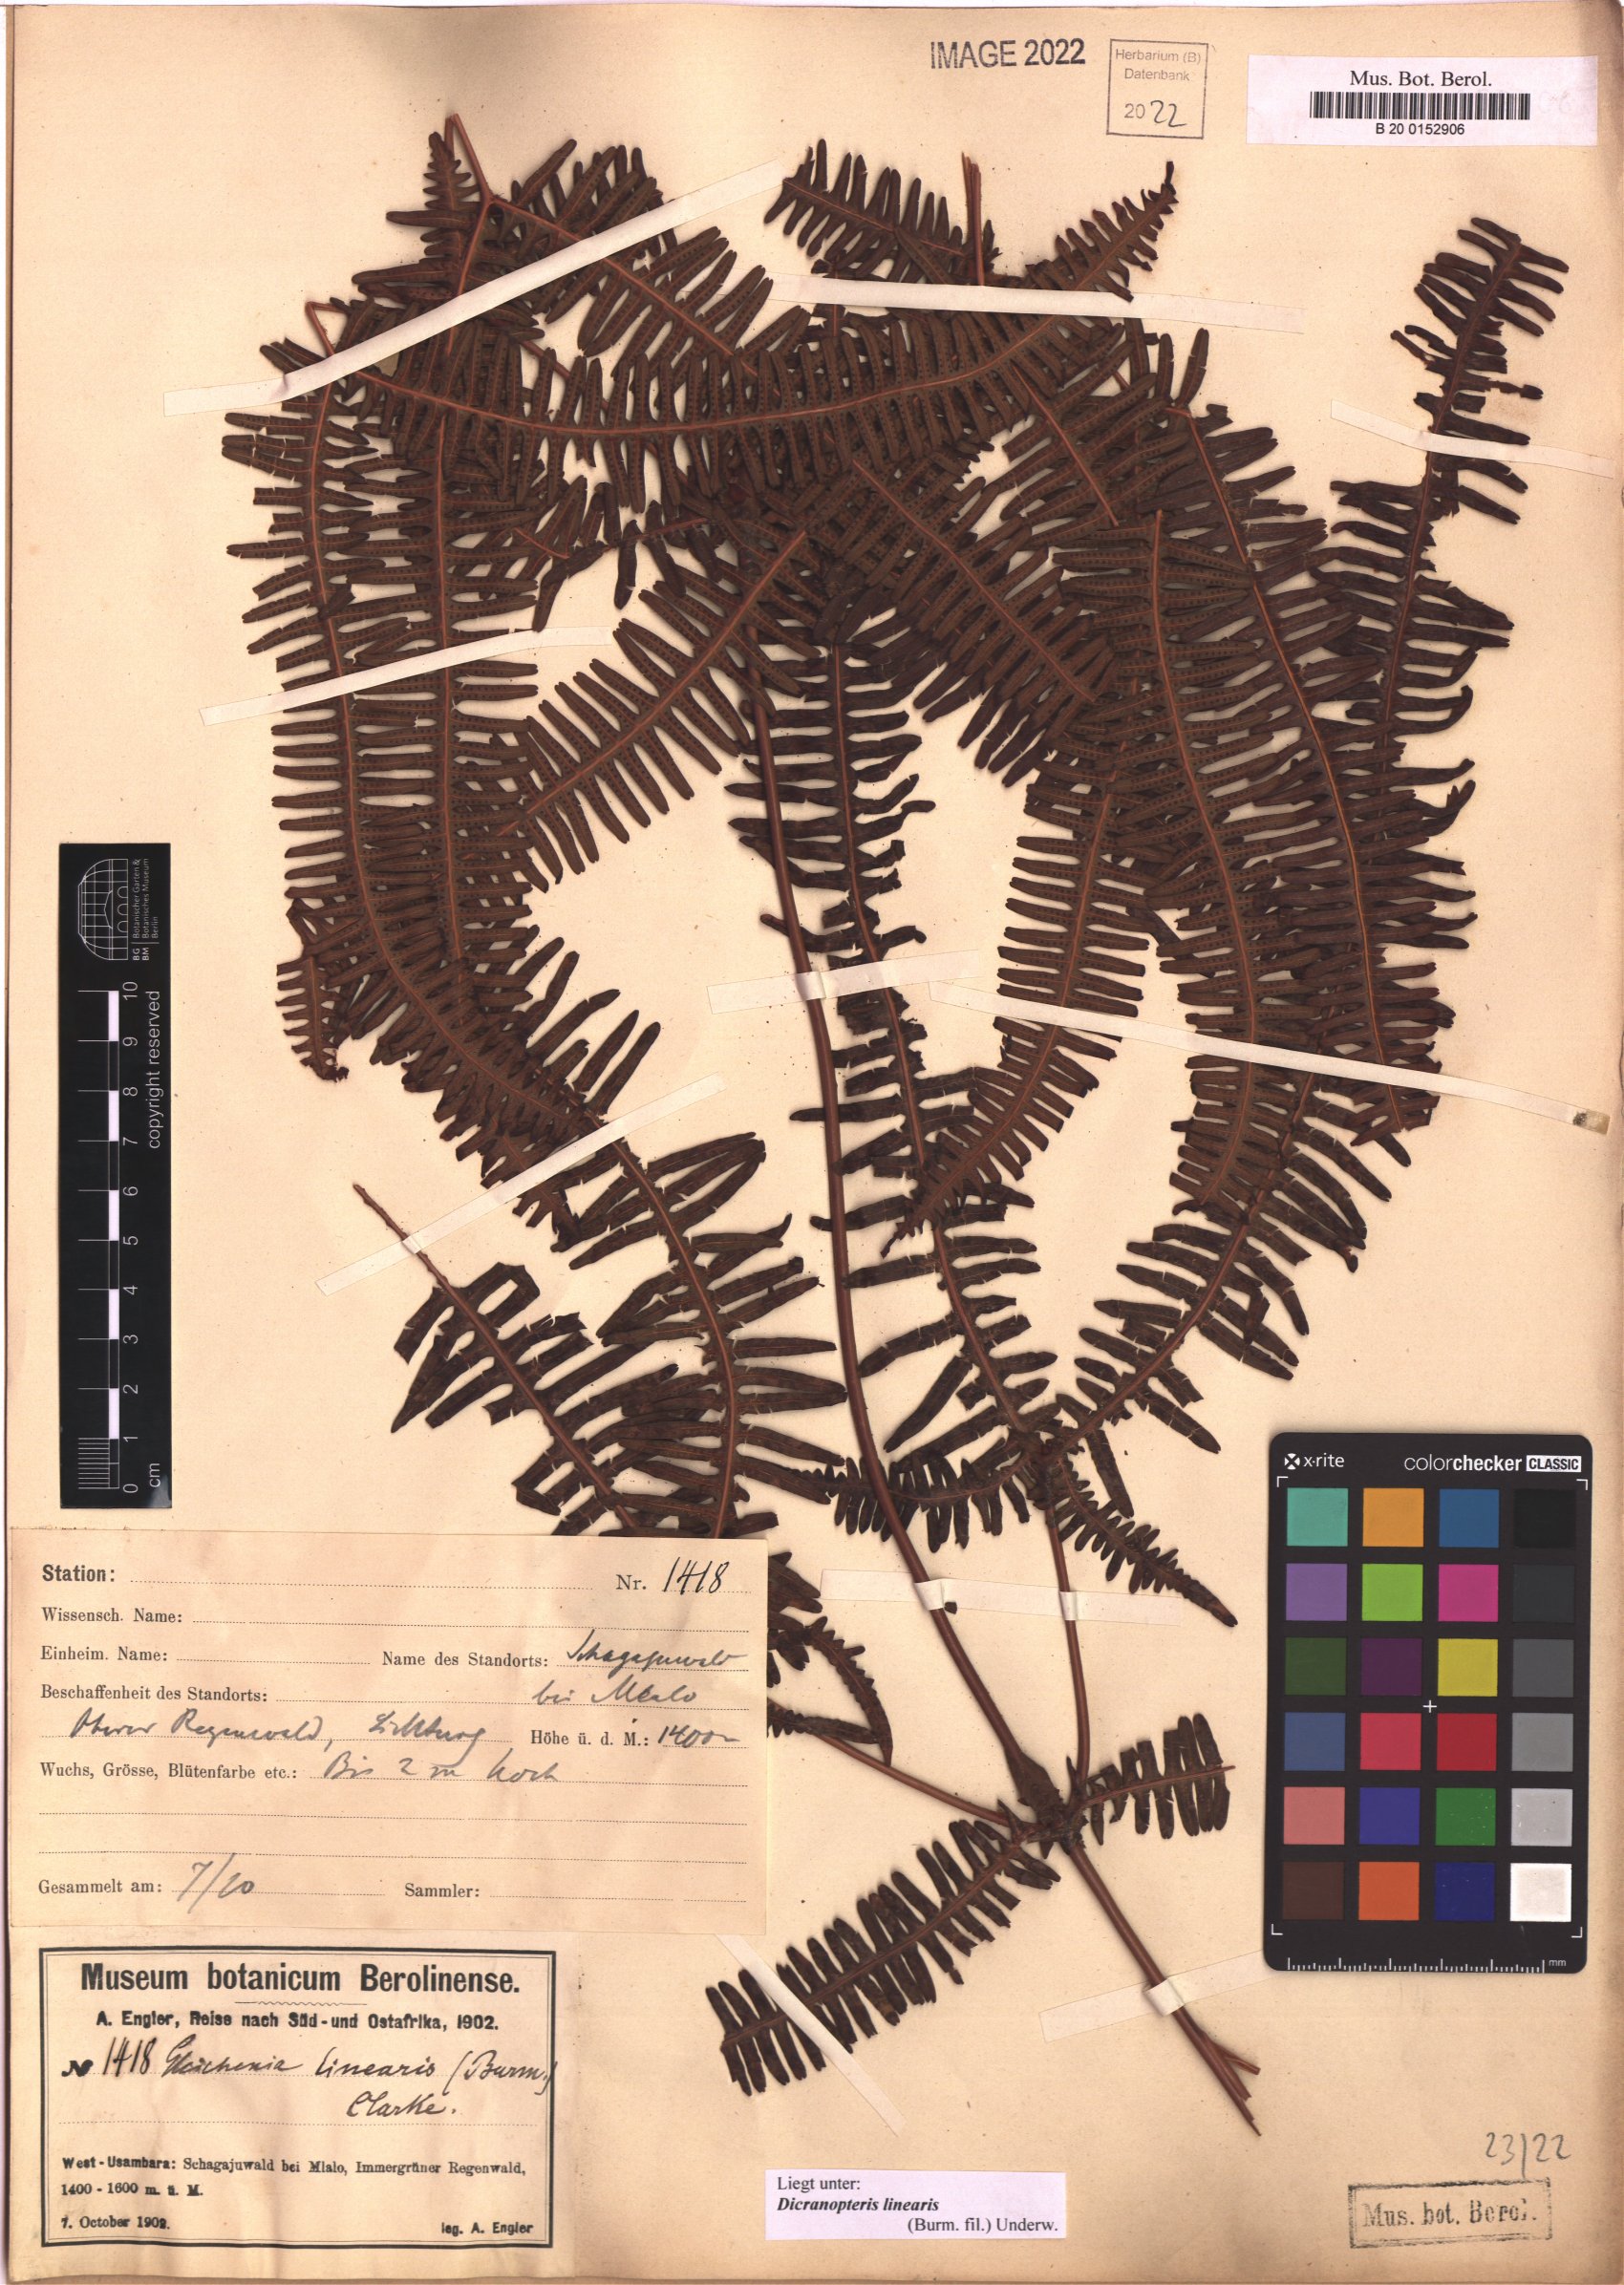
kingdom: Plantae
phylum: Tracheophyta
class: Polypodiopsida
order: Gleicheniales
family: Gleicheniaceae
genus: Dicranopteris
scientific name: Dicranopteris linearis
